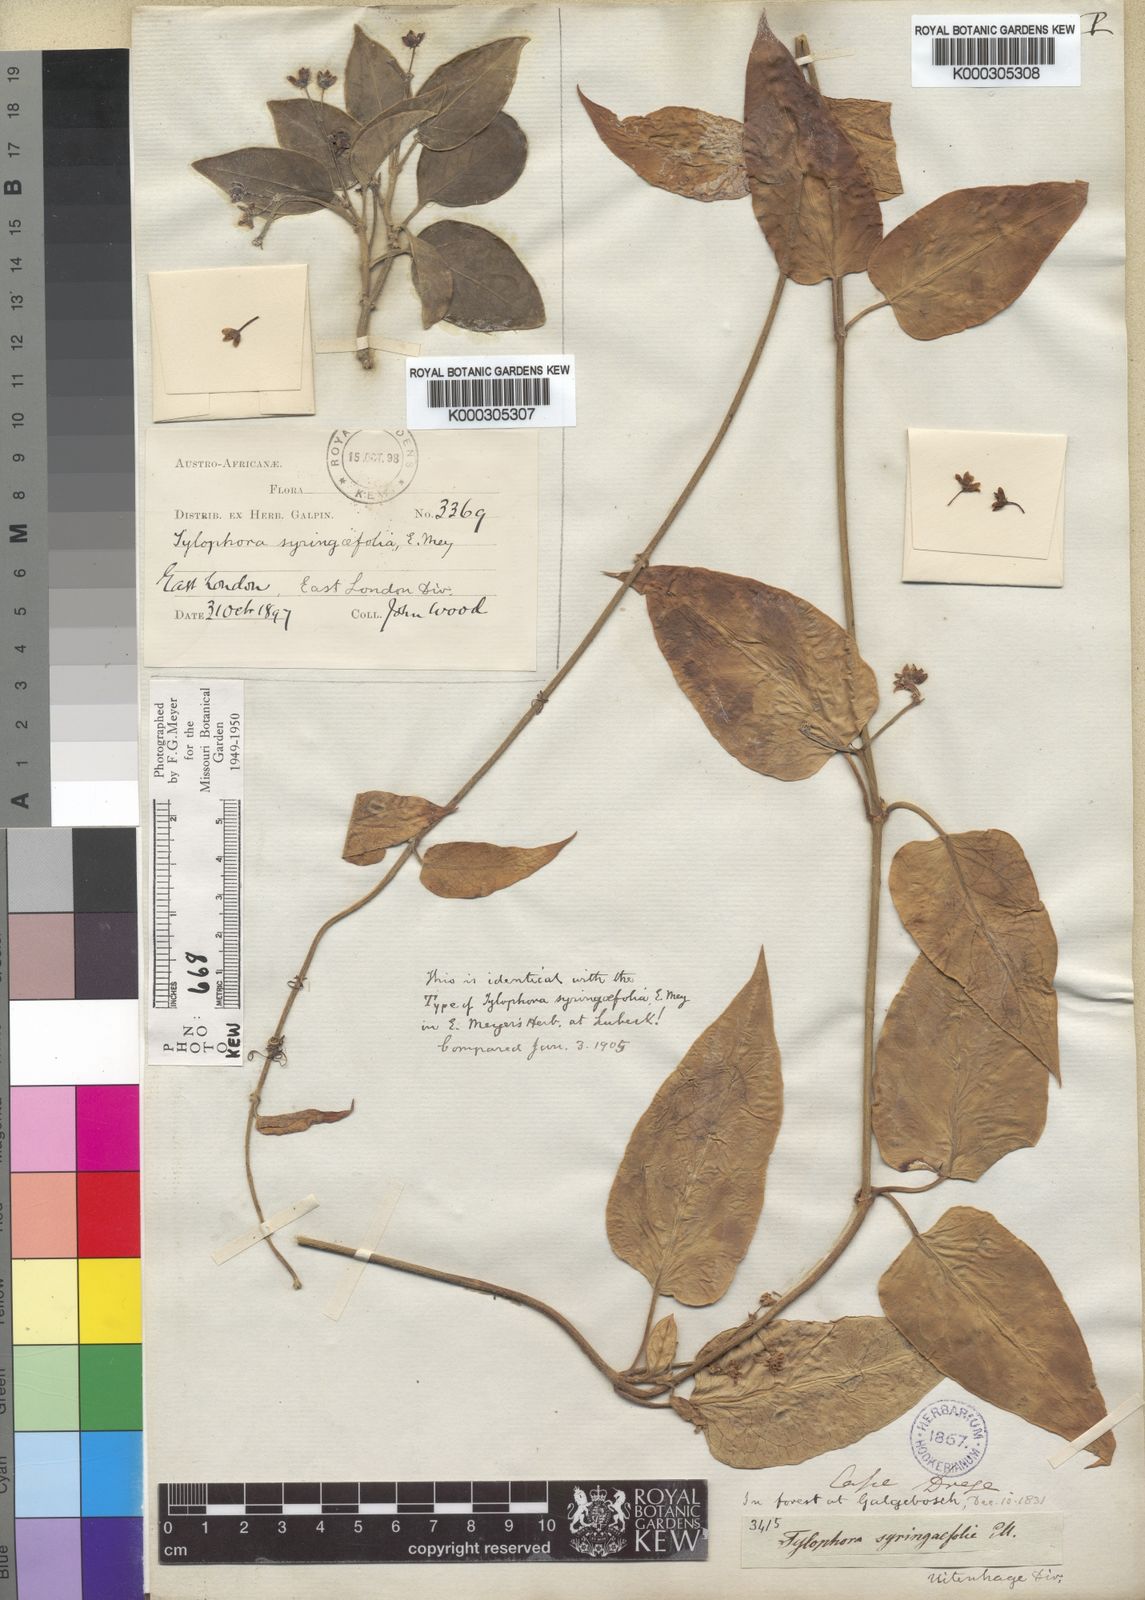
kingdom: Plantae
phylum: Tracheophyta
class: Magnoliopsida
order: Gentianales
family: Apocynaceae
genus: Vincetoxicum
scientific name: Vincetoxicum cordatum
